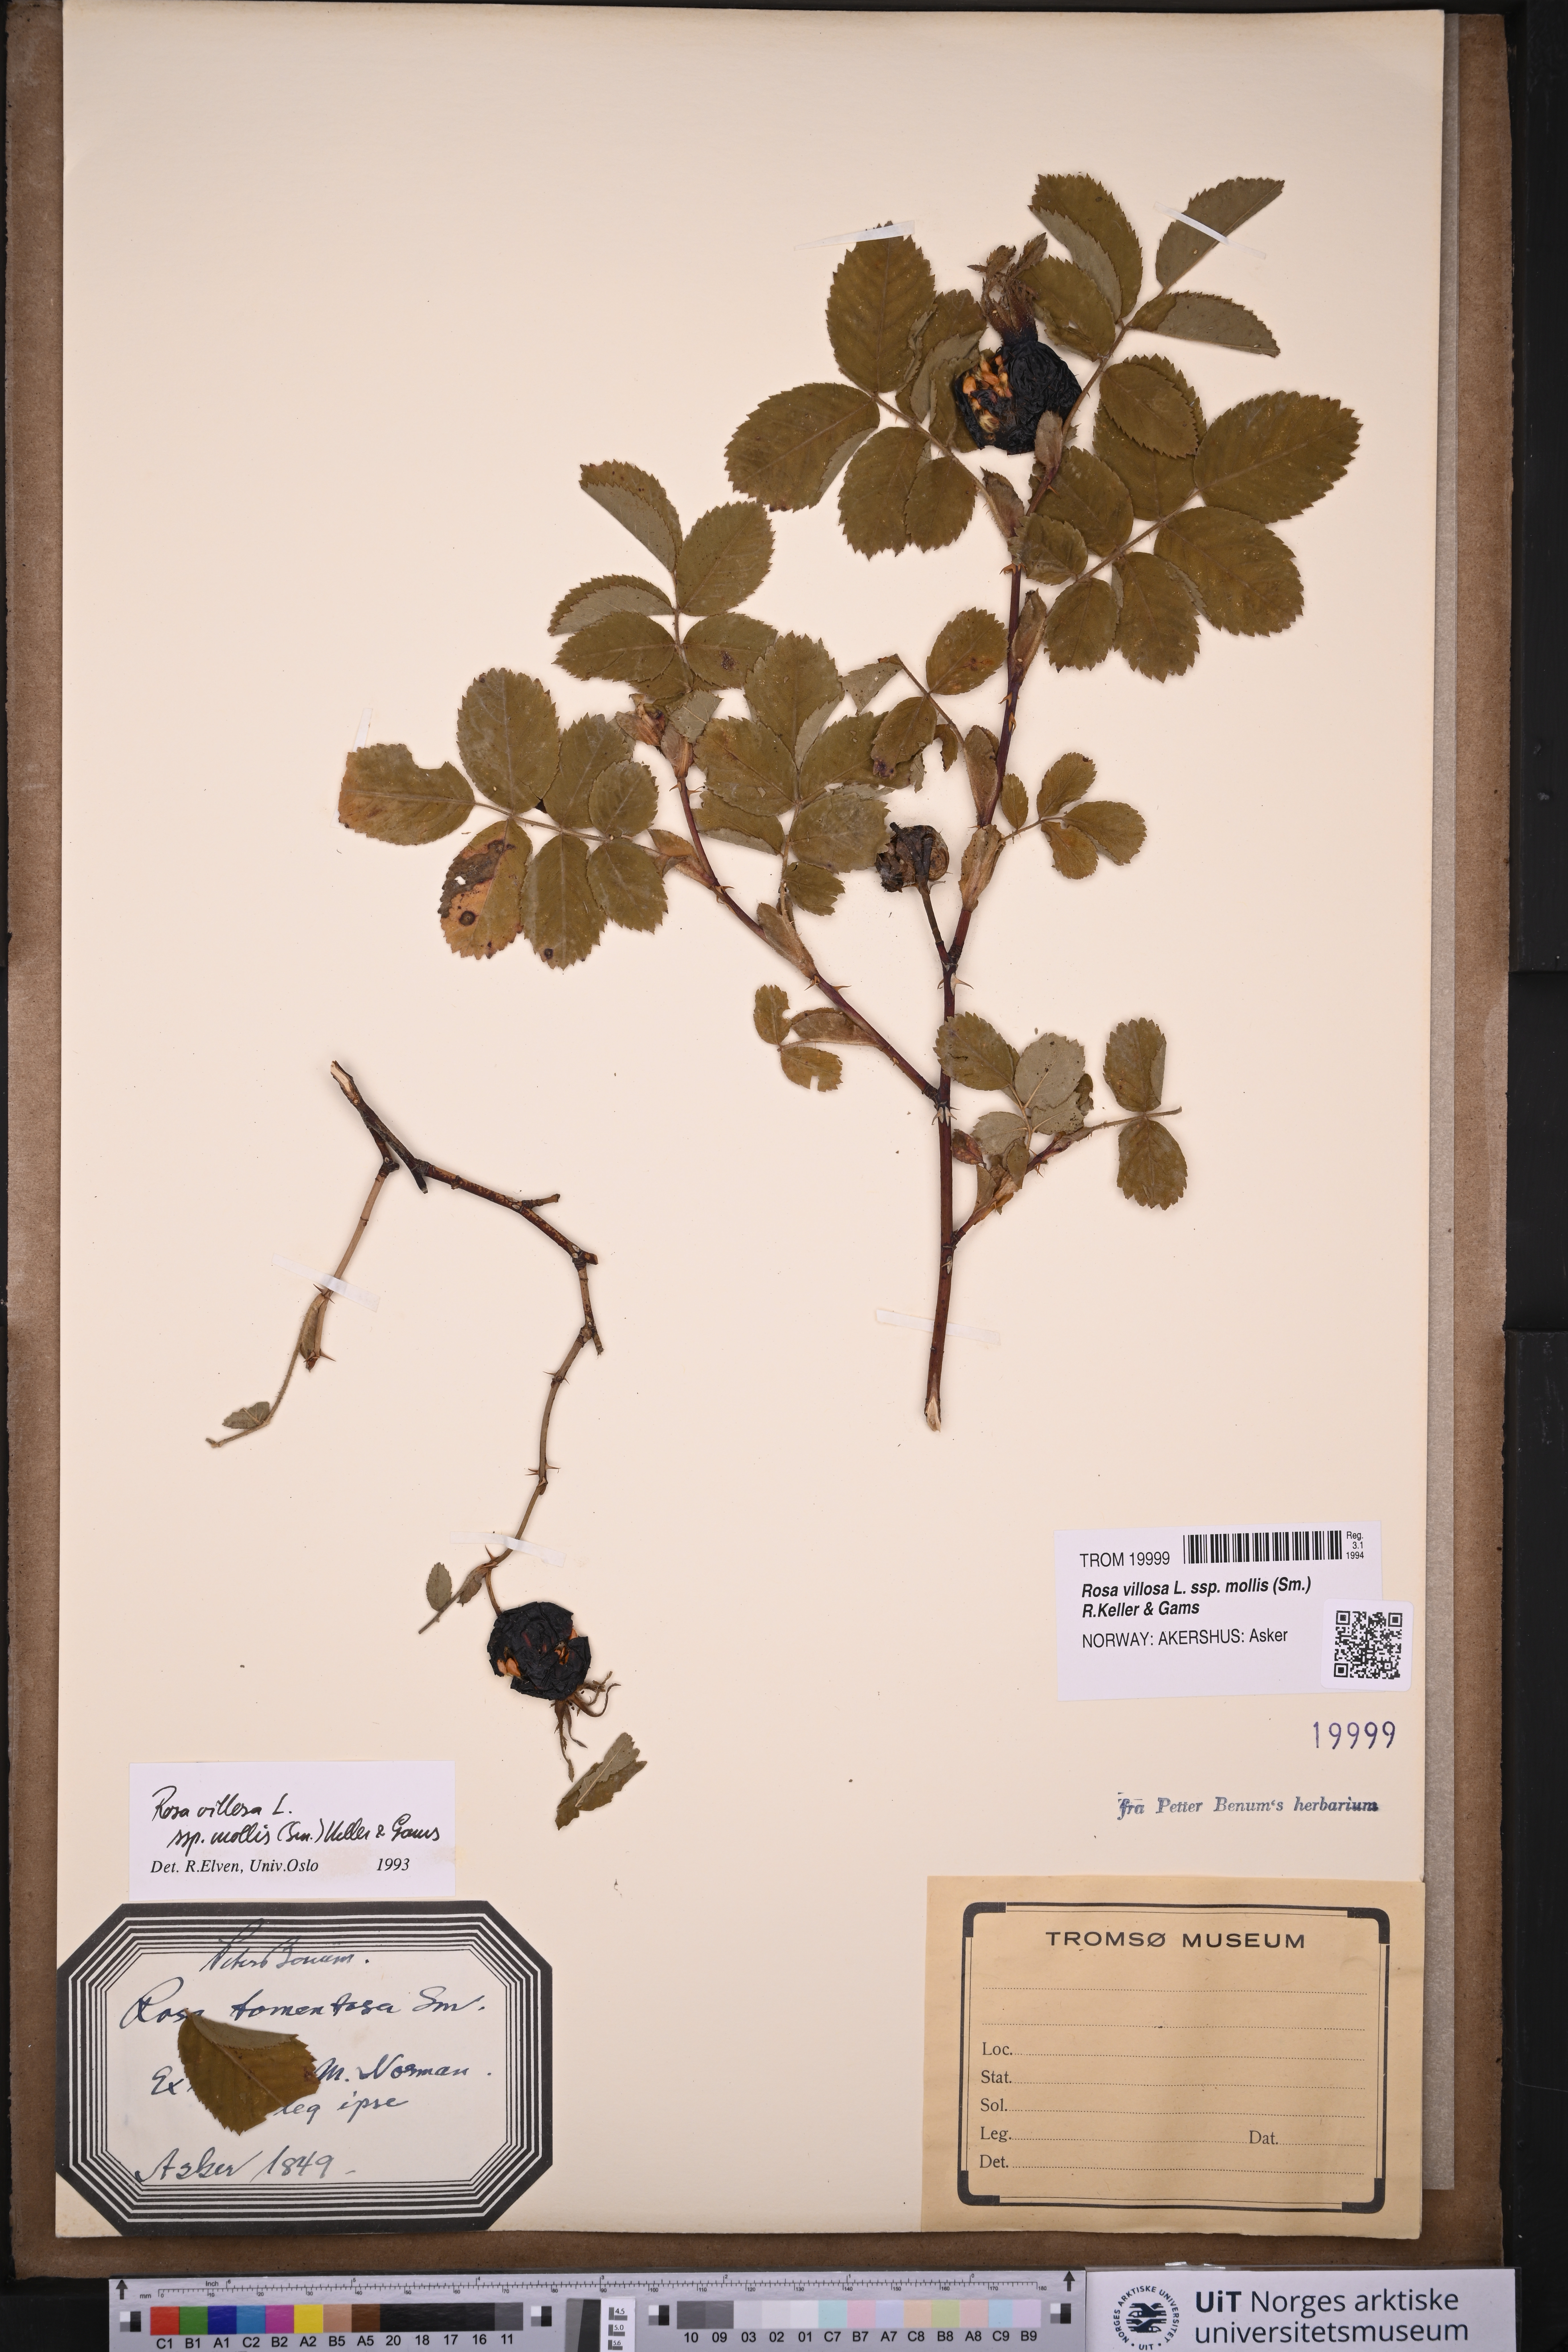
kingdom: Plantae
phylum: Tracheophyta
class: Magnoliopsida
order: Rosales
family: Rosaceae
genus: Rosa
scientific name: Rosa mollis
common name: Rose
